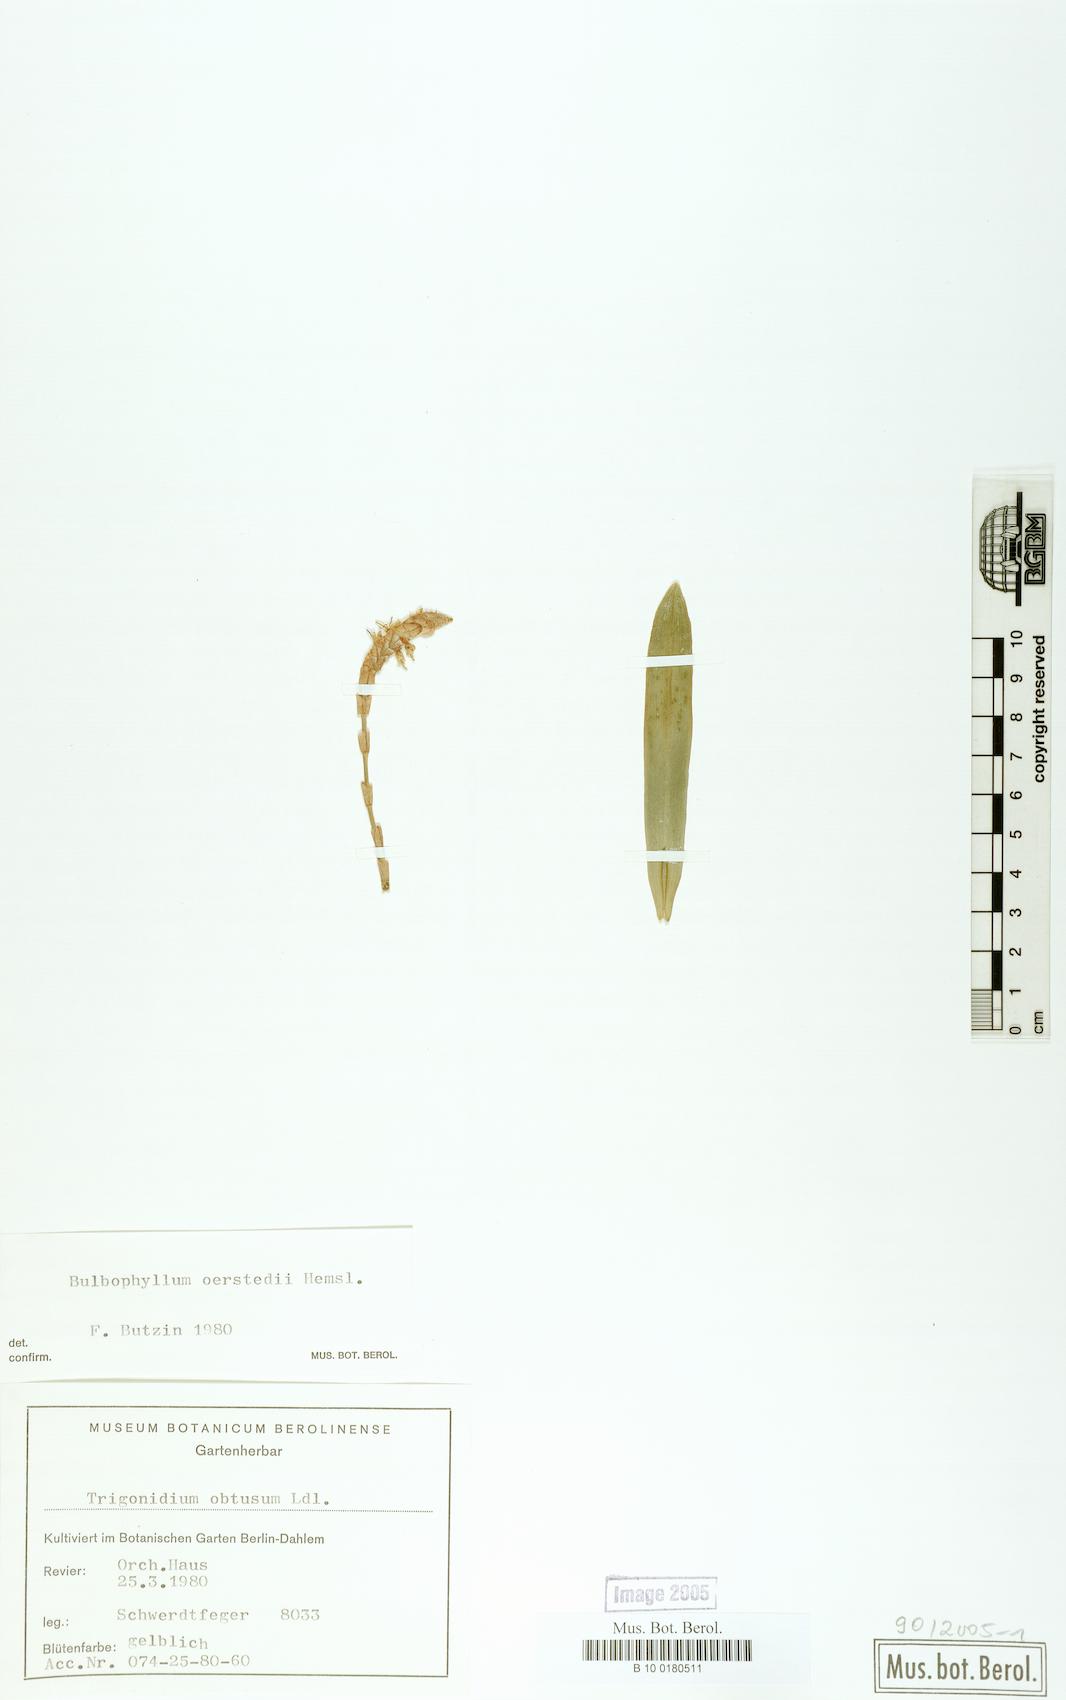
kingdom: Plantae
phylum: Tracheophyta
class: Liliopsida
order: Asparagales
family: Orchidaceae
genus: Bulbophyllum
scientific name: Bulbophyllum oerstedii
